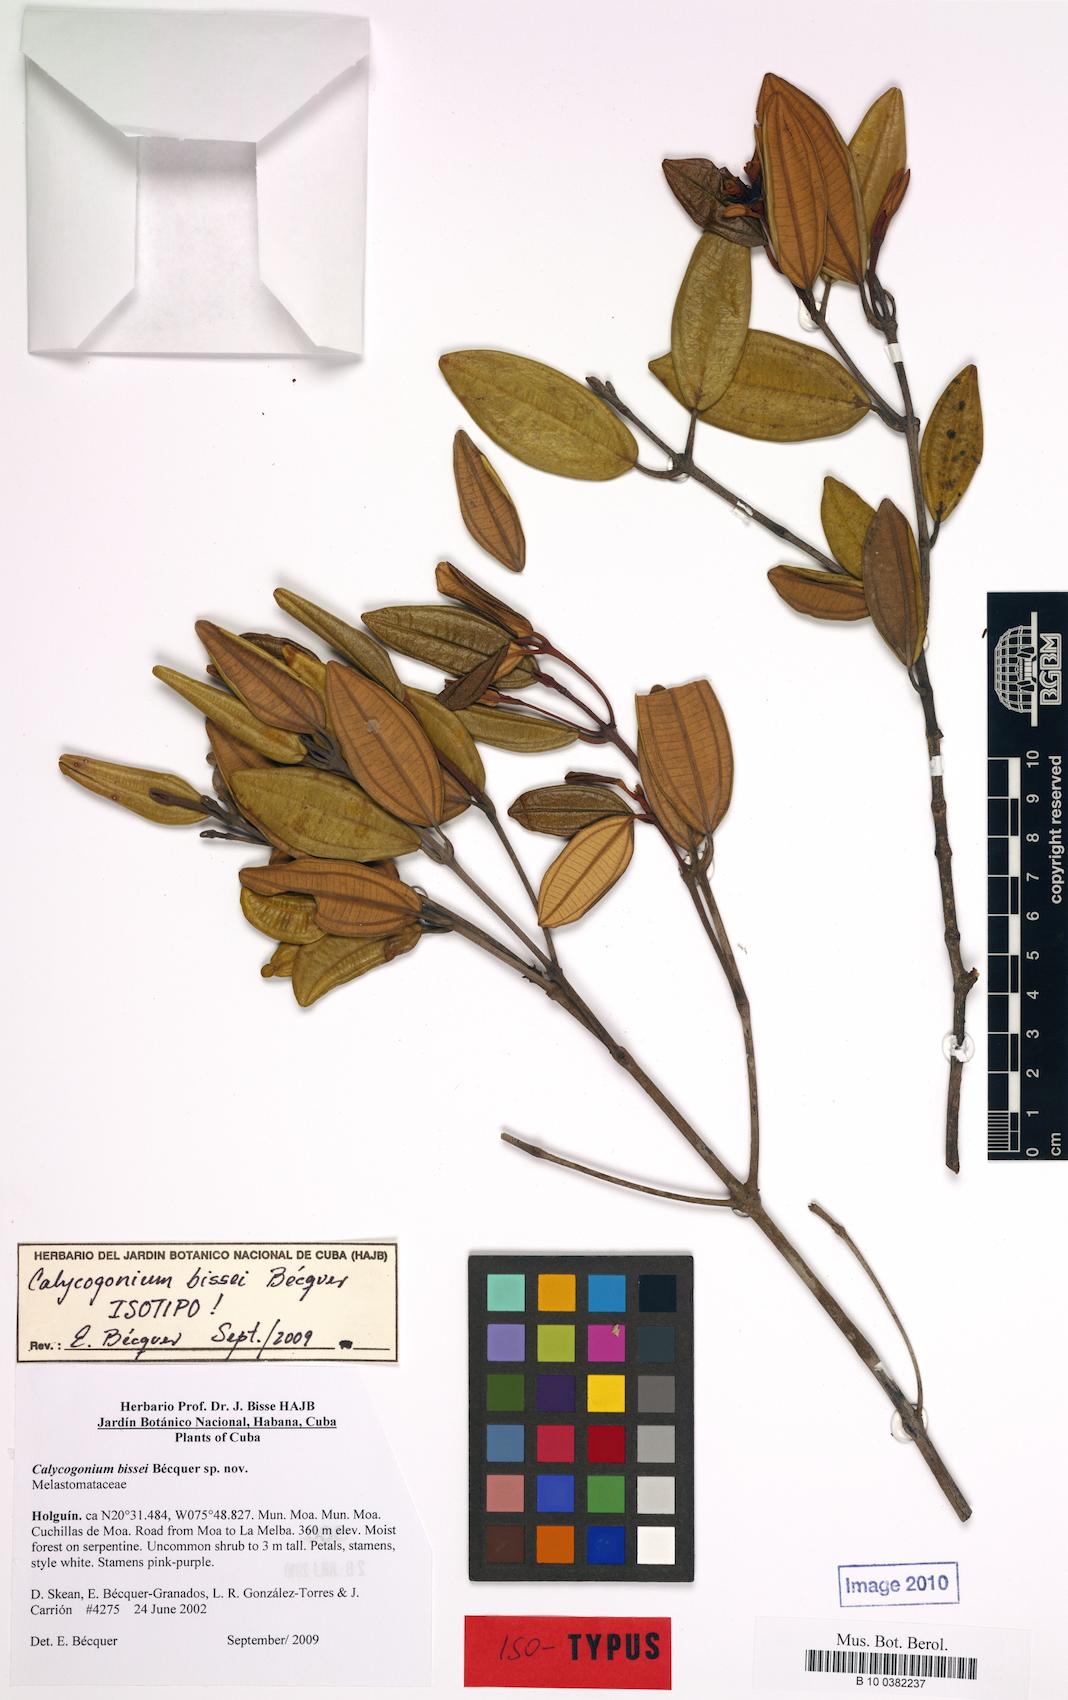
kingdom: Plantae
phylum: Tracheophyta
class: Magnoliopsida
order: Myrtales
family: Melastomataceae
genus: Miconia
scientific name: Miconia bissei
